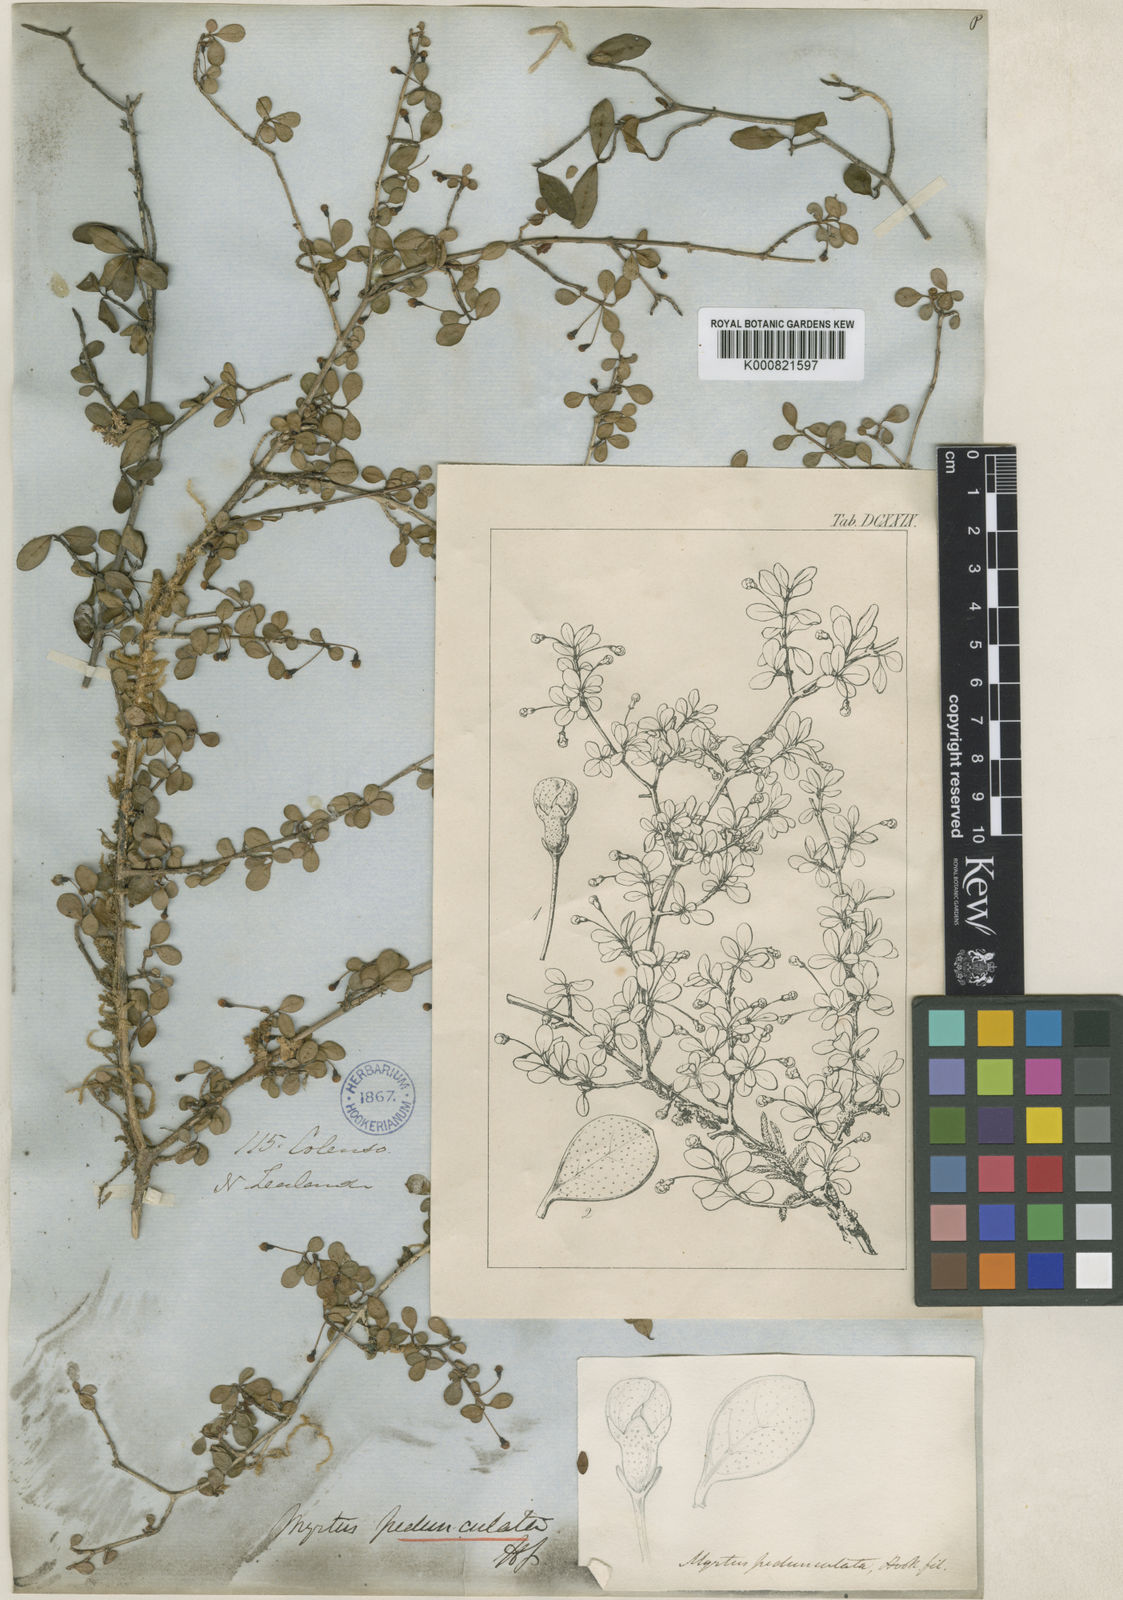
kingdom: Plantae
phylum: Tracheophyta
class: Magnoliopsida
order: Myrtales
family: Myrtaceae
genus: Neomyrtus
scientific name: Neomyrtus pedunculata
